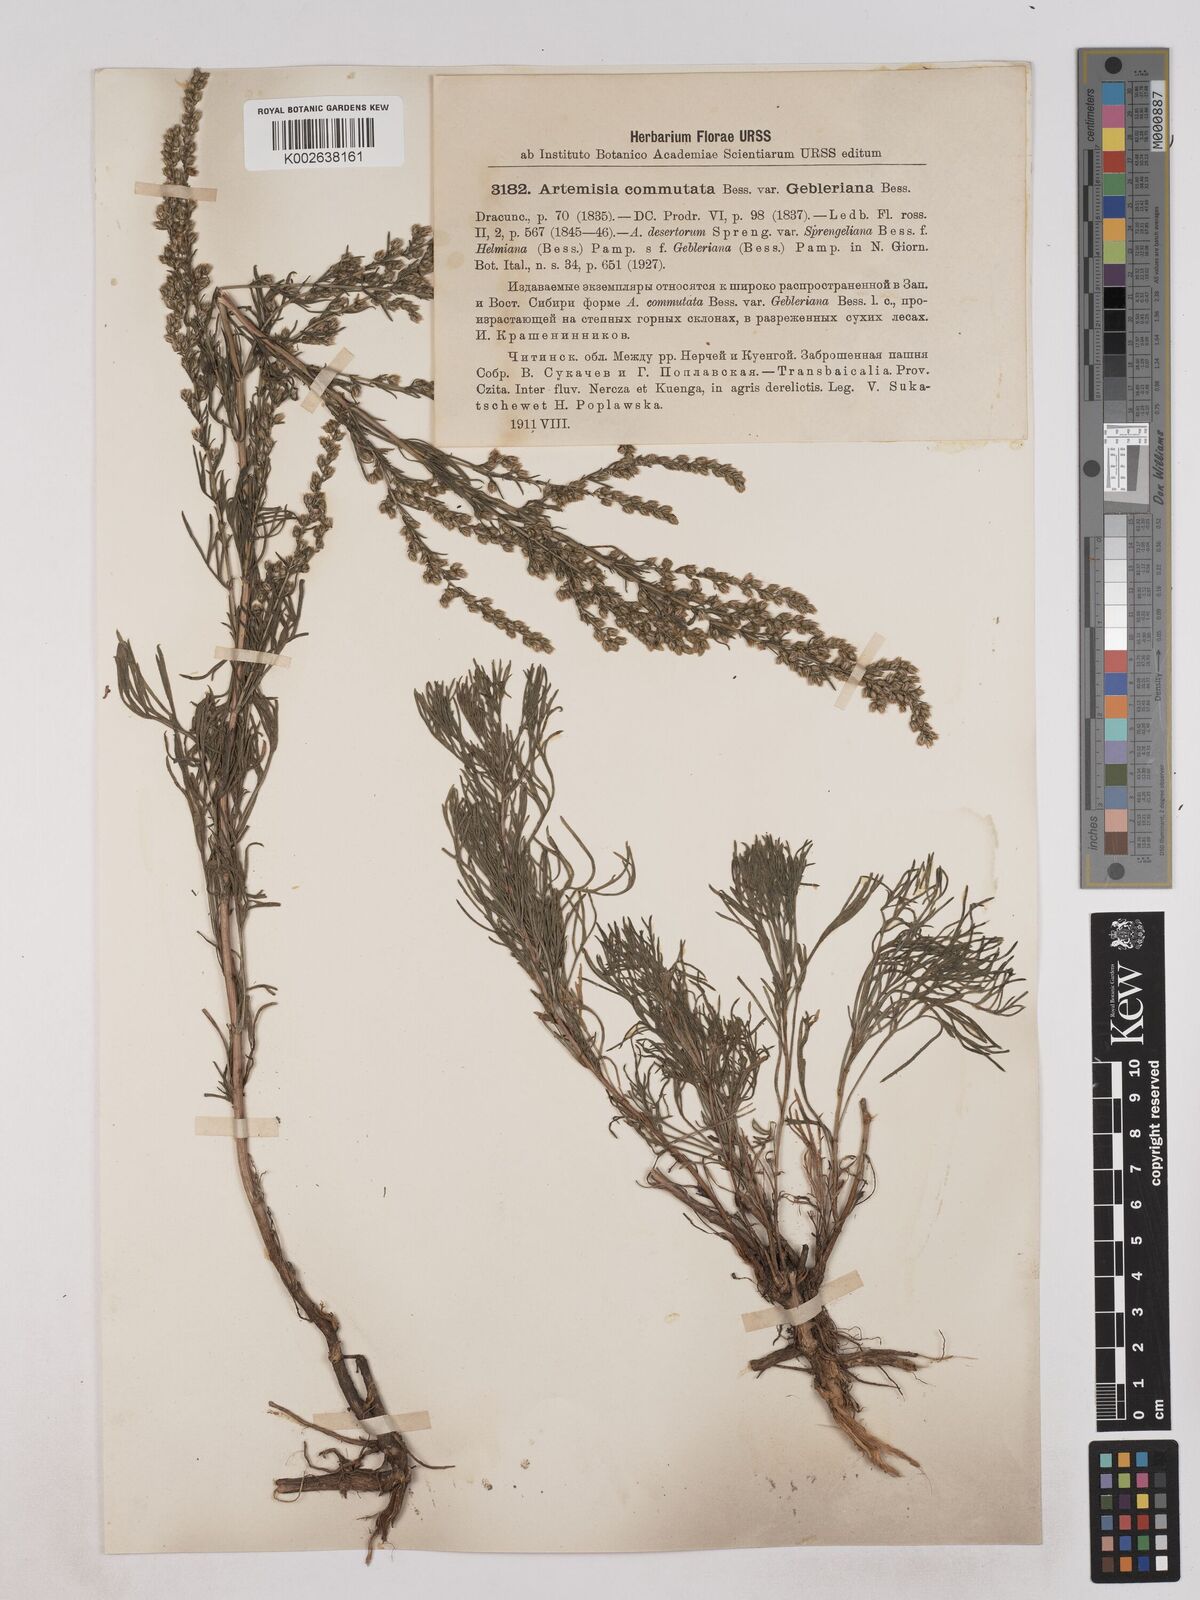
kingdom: Plantae
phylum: Tracheophyta
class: Magnoliopsida
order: Asterales
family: Asteraceae
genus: Artemisia
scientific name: Artemisia pubescens
